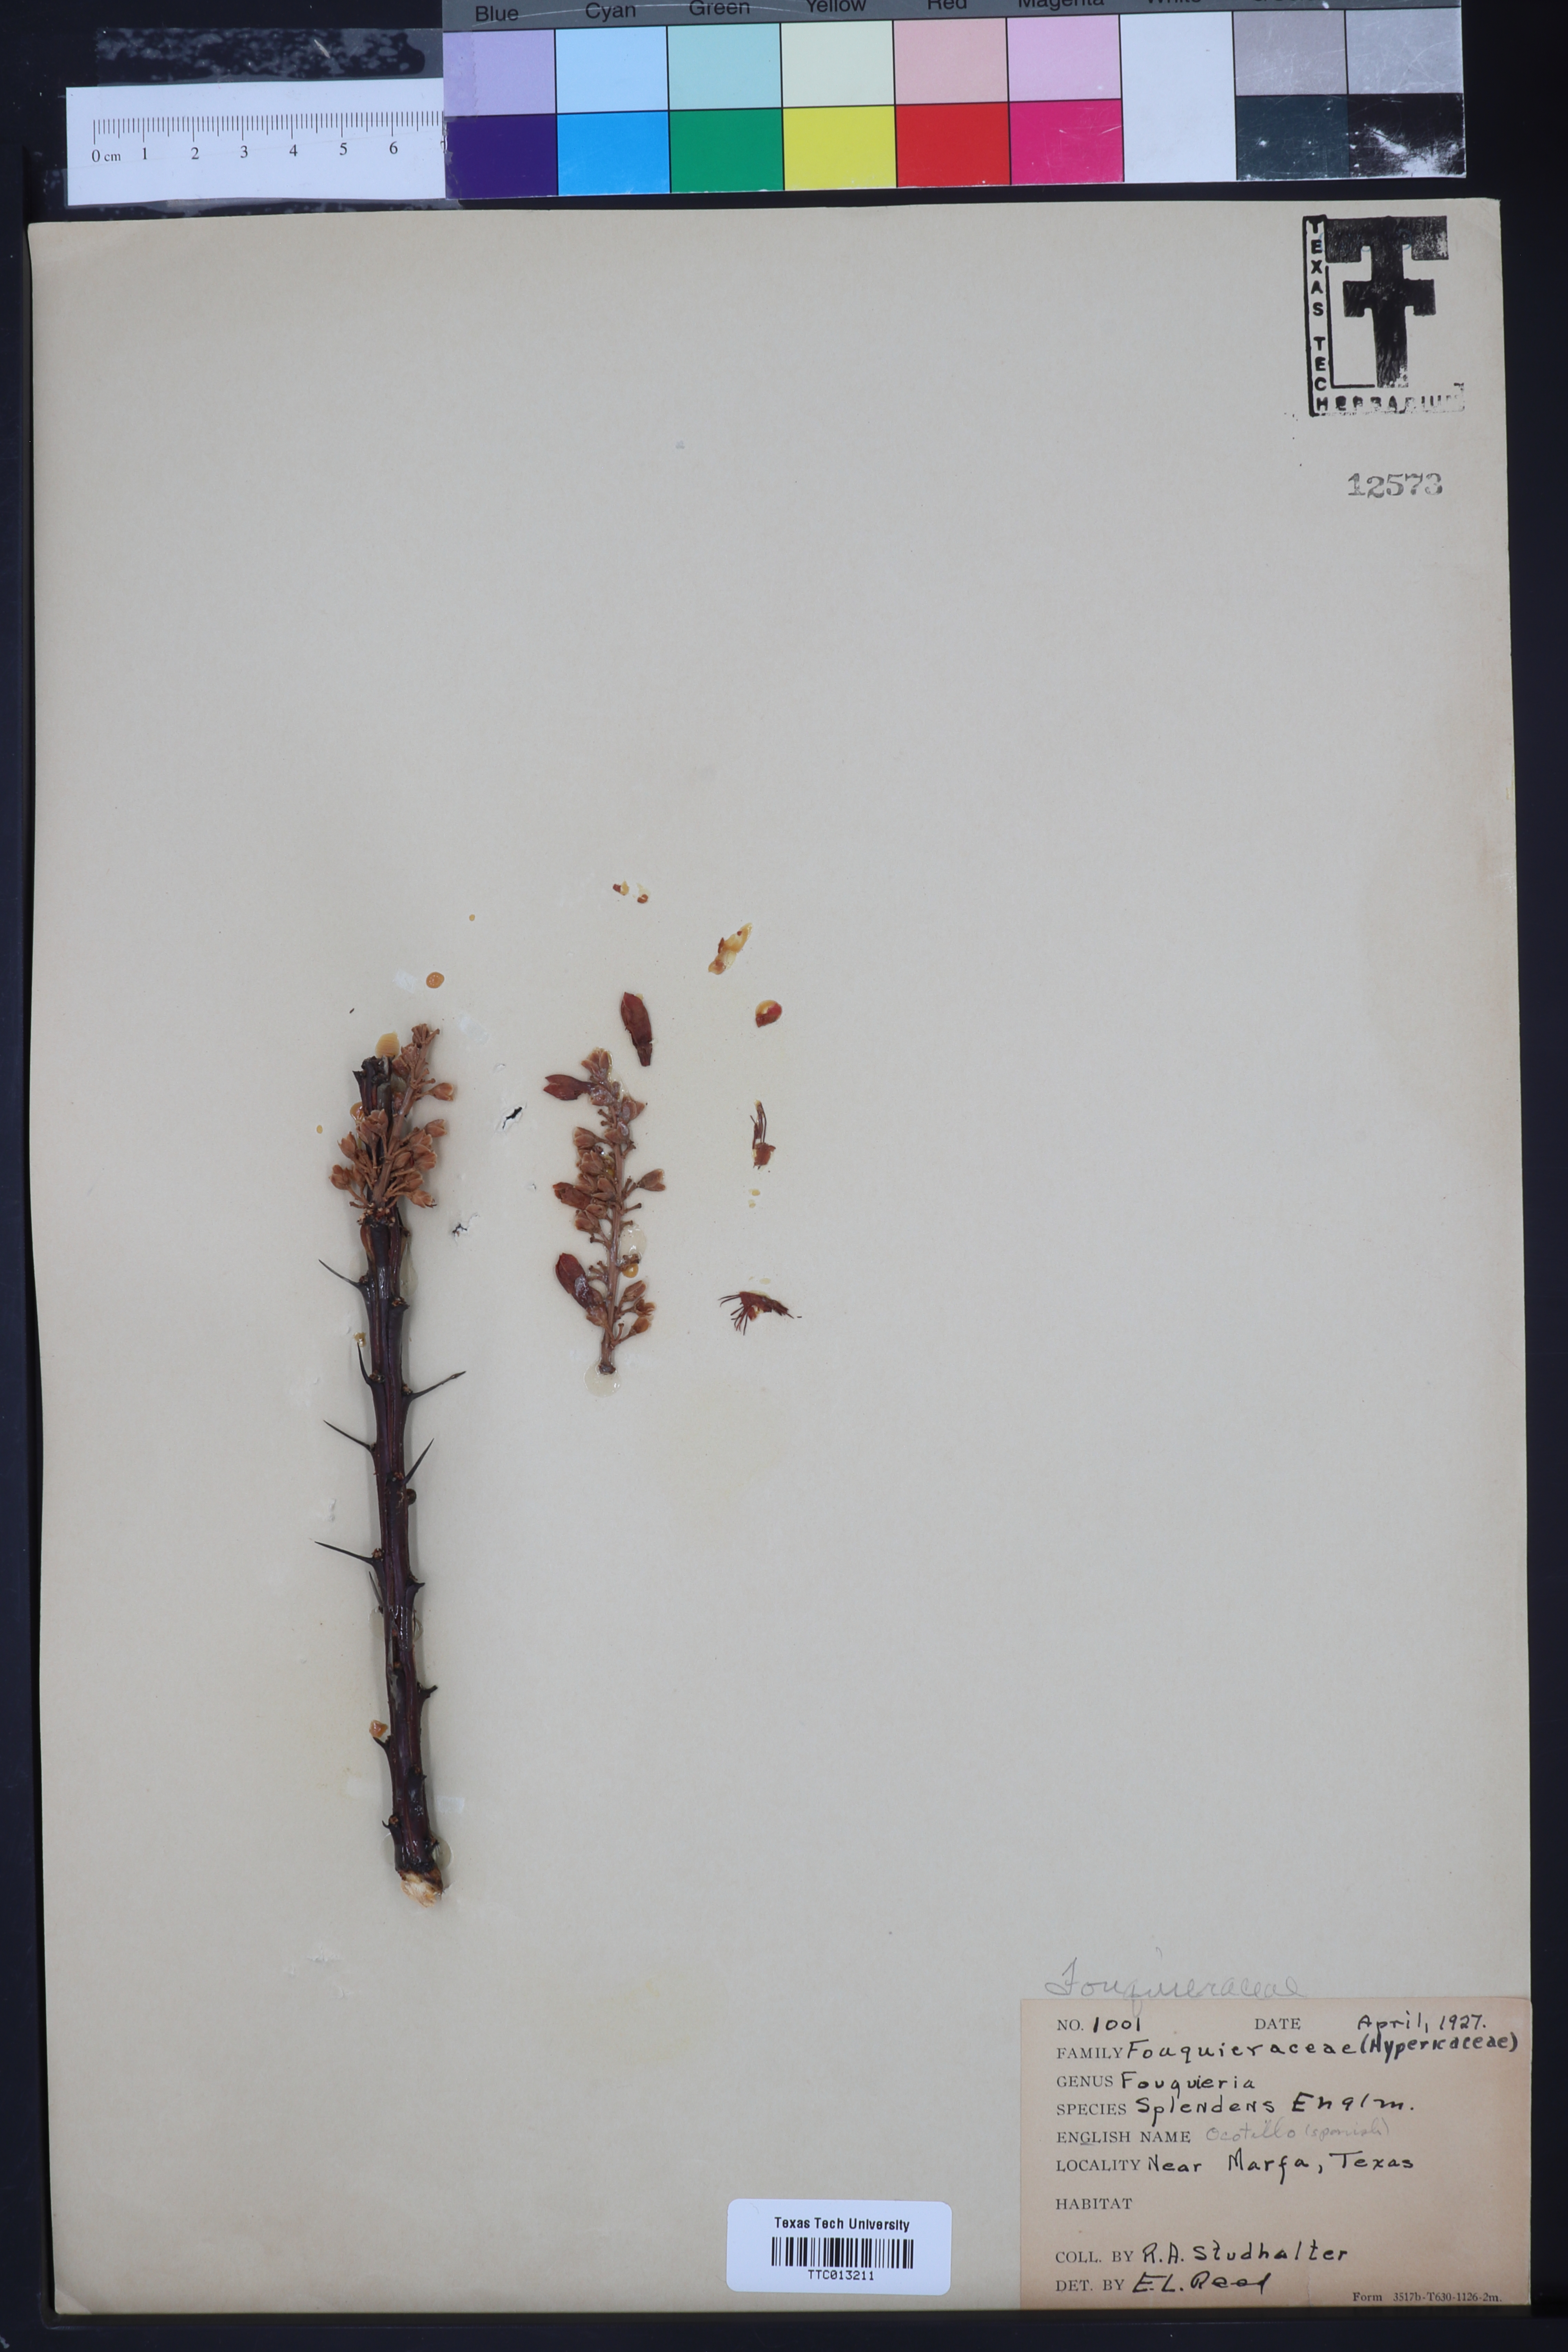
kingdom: Plantae
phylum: Tracheophyta
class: Magnoliopsida
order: Ericales
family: Fouquieriaceae
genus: Fouquieria
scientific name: Fouquieria splendens
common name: Vine-cactus
